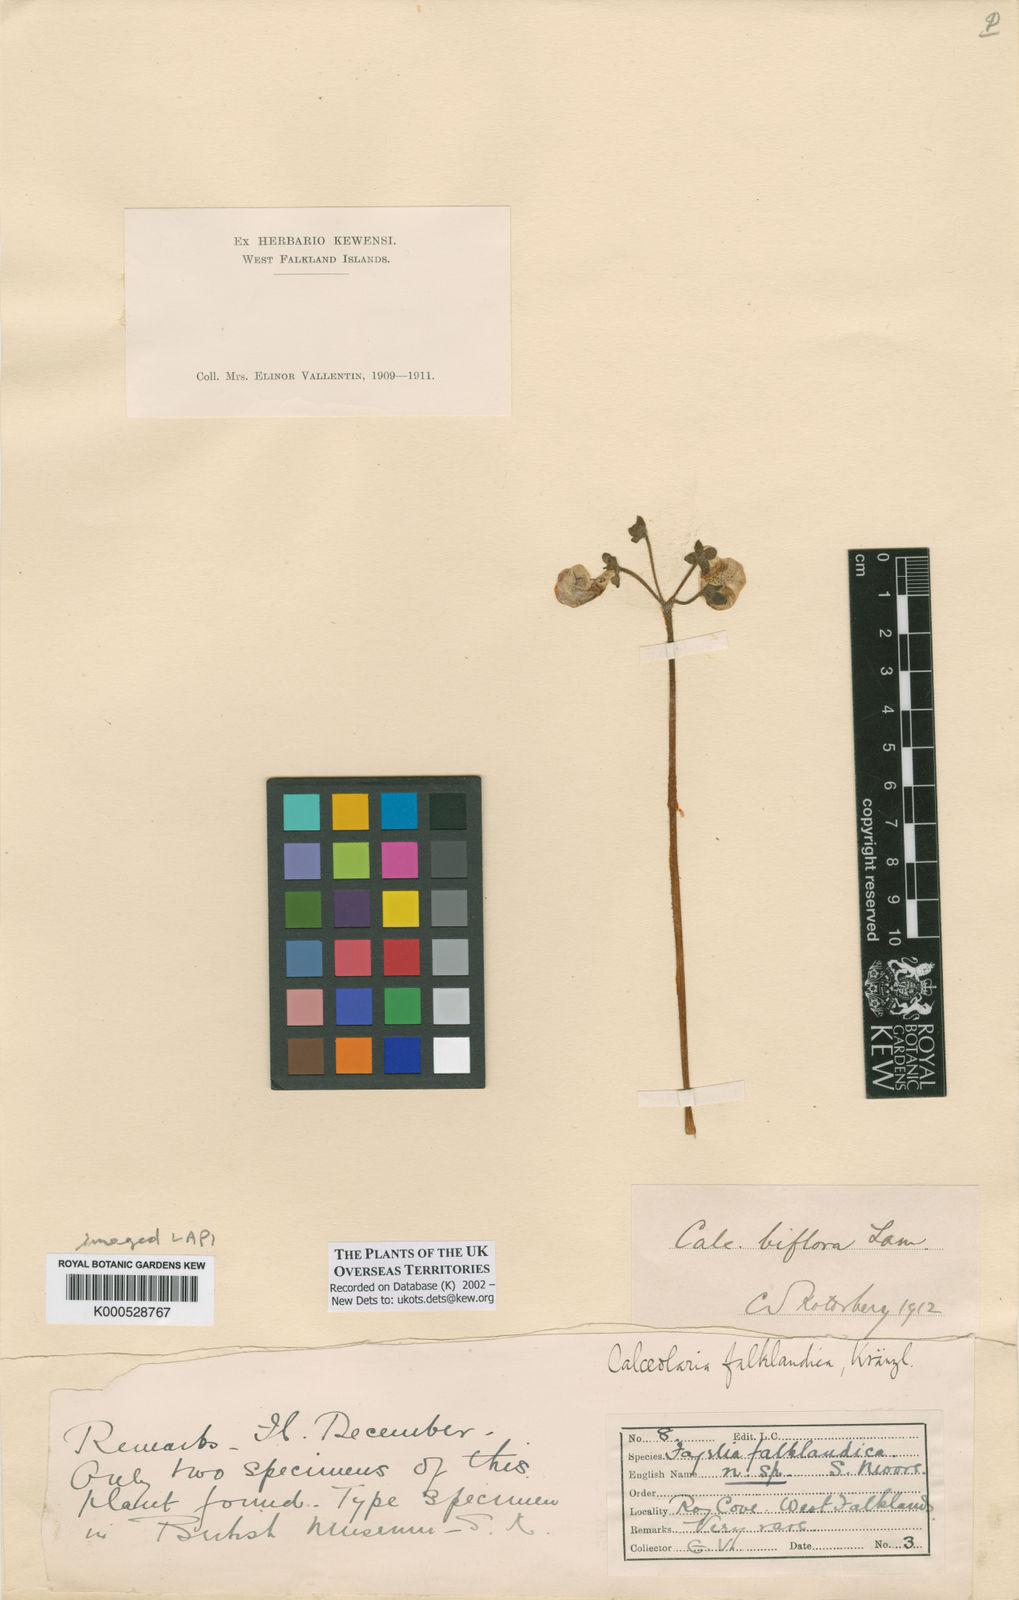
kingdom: Plantae
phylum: Tracheophyta
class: Magnoliopsida
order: Lamiales
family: Calceolariaceae
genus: Calceolaria
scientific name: Calceolaria biflora
